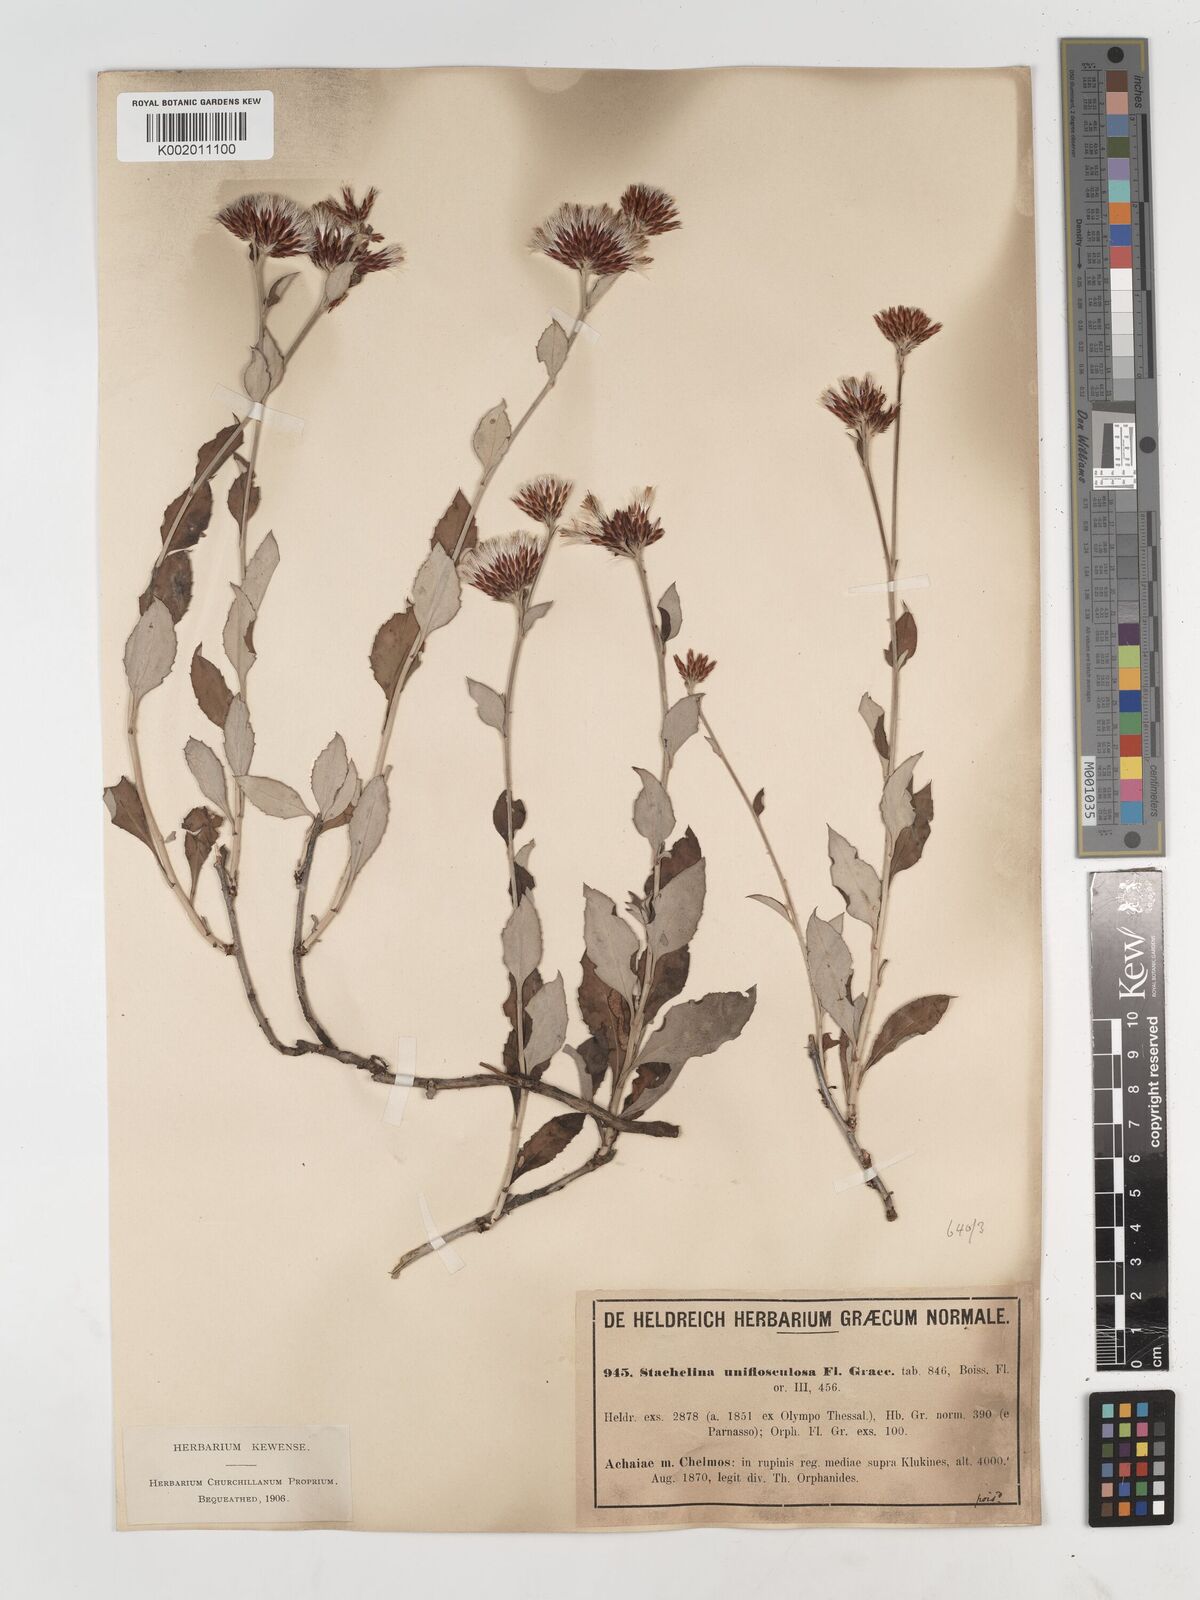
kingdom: Plantae
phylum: Tracheophyta
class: Magnoliopsida
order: Asterales
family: Asteraceae
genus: Staehelina
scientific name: Staehelina uniflosculosa
